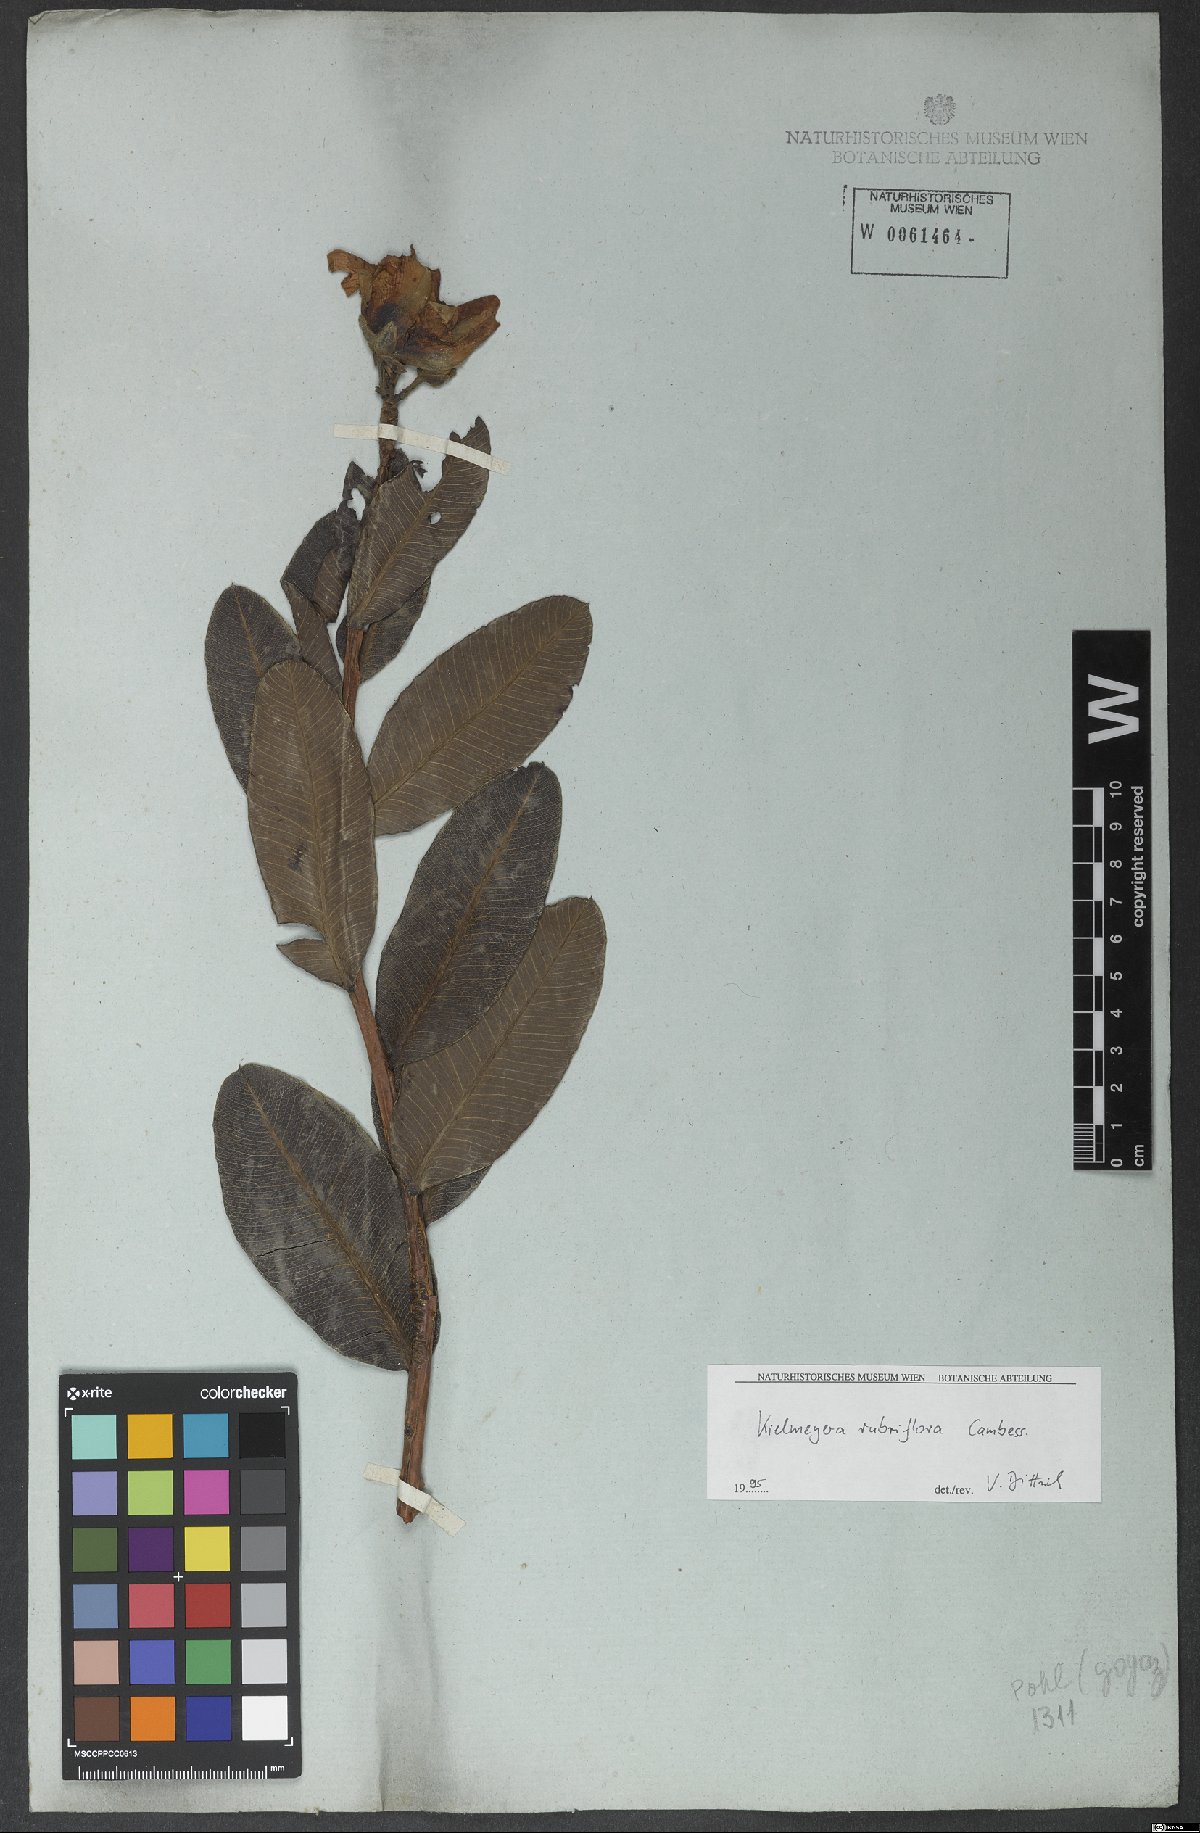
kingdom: Plantae
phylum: Tracheophyta
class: Magnoliopsida
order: Malpighiales
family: Calophyllaceae
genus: Kielmeyera
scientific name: Kielmeyera rubriflora
